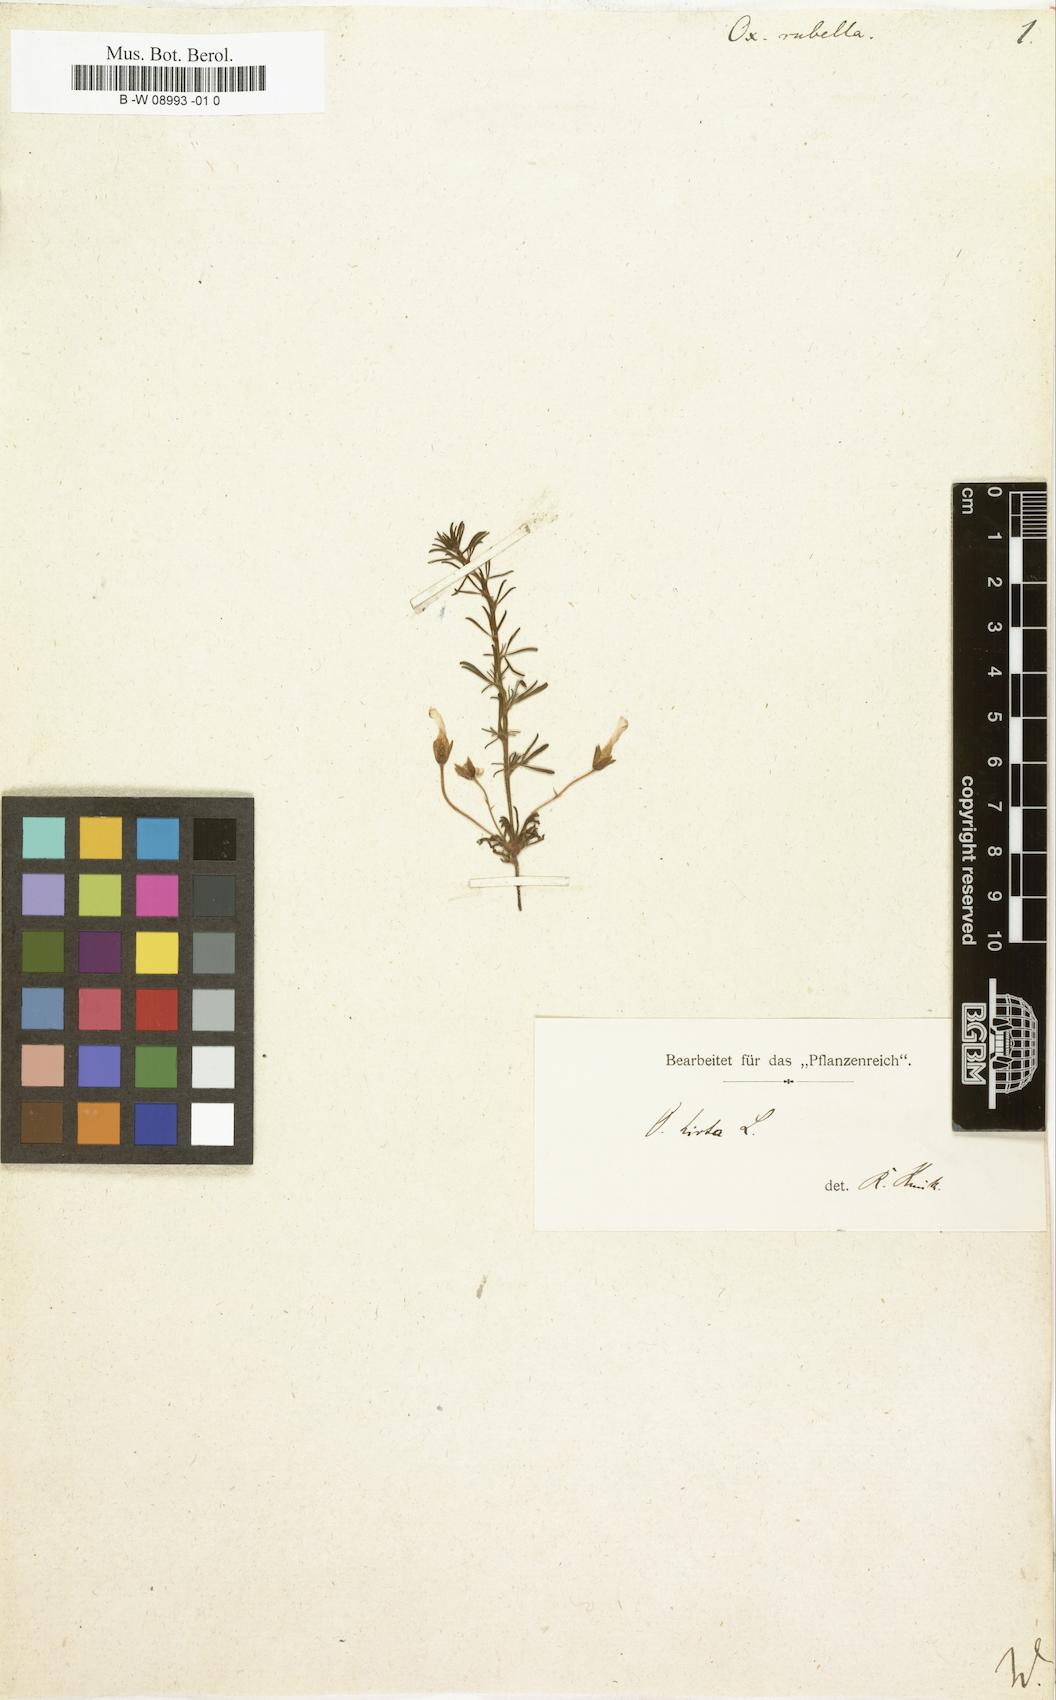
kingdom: Plantae
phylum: Tracheophyta
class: Magnoliopsida
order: Oxalidales
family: Oxalidaceae
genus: Oxalis
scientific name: Oxalis hirta
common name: Tropical woodsorrel
